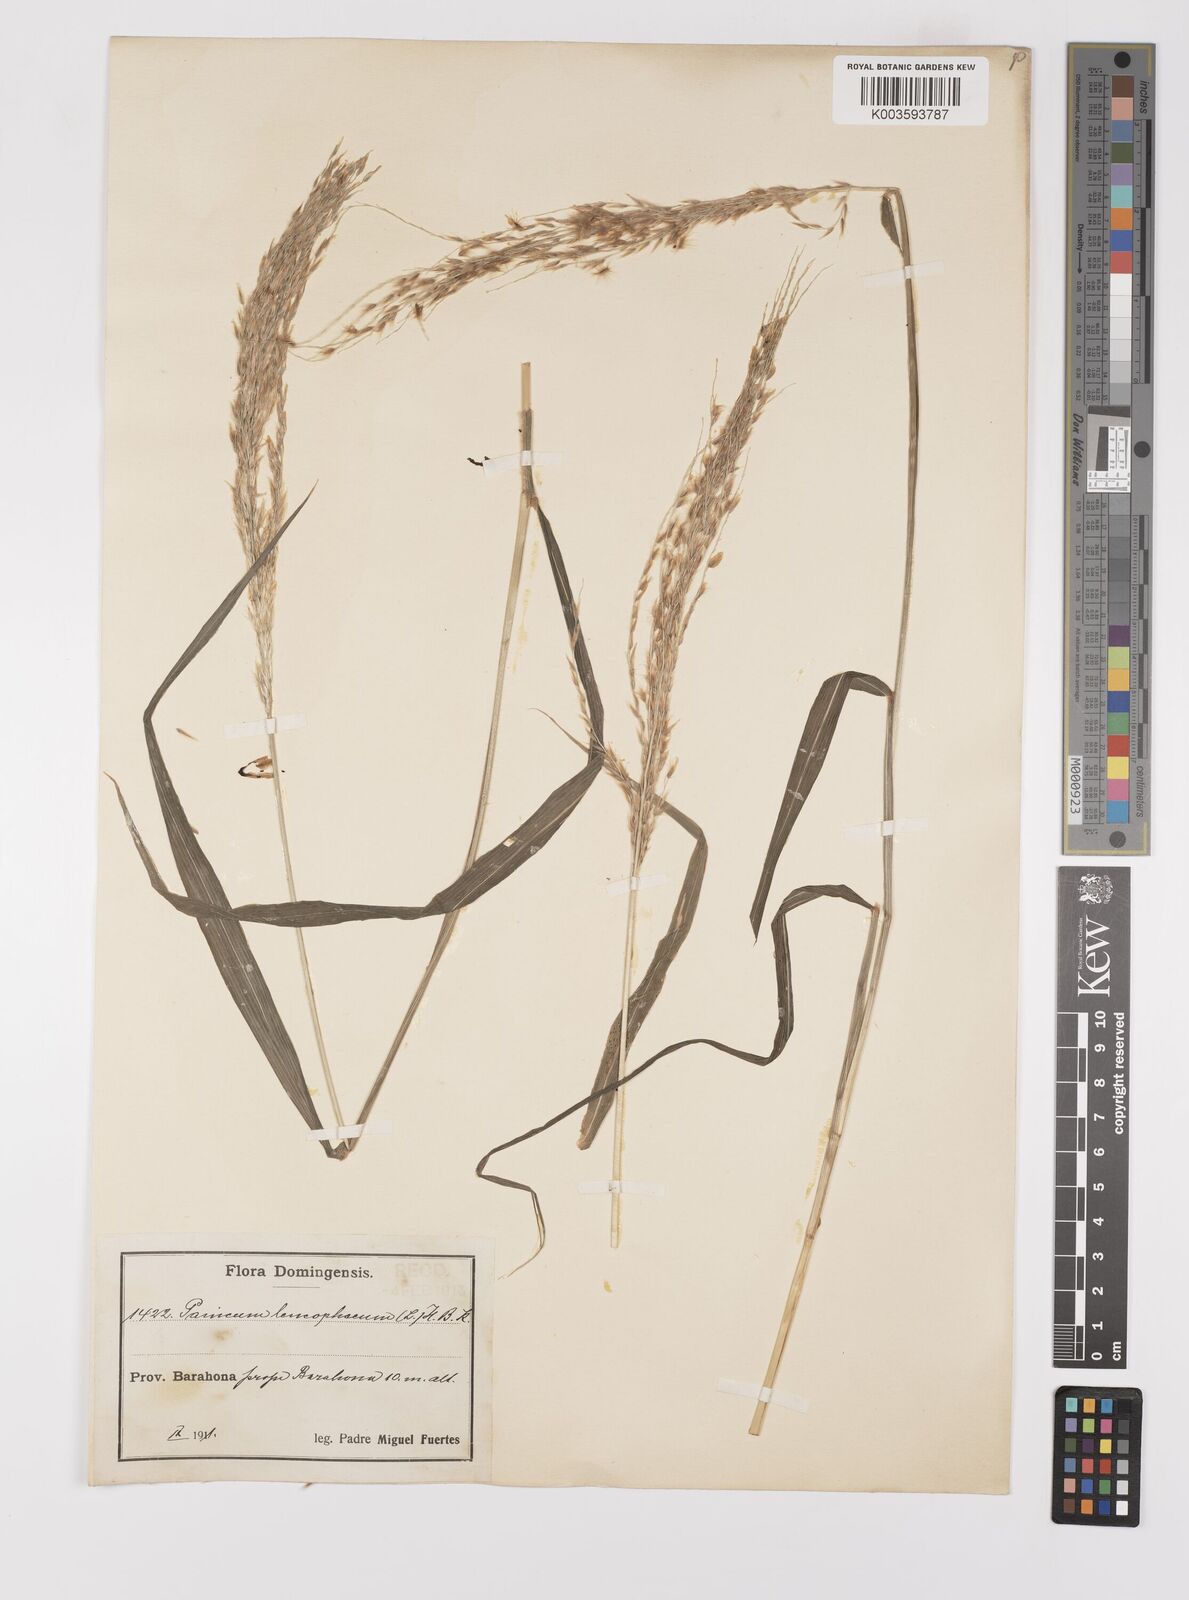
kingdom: Plantae
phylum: Tracheophyta
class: Liliopsida
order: Poales
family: Poaceae
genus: Digitaria
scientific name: Digitaria insularis
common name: Sourgrass
